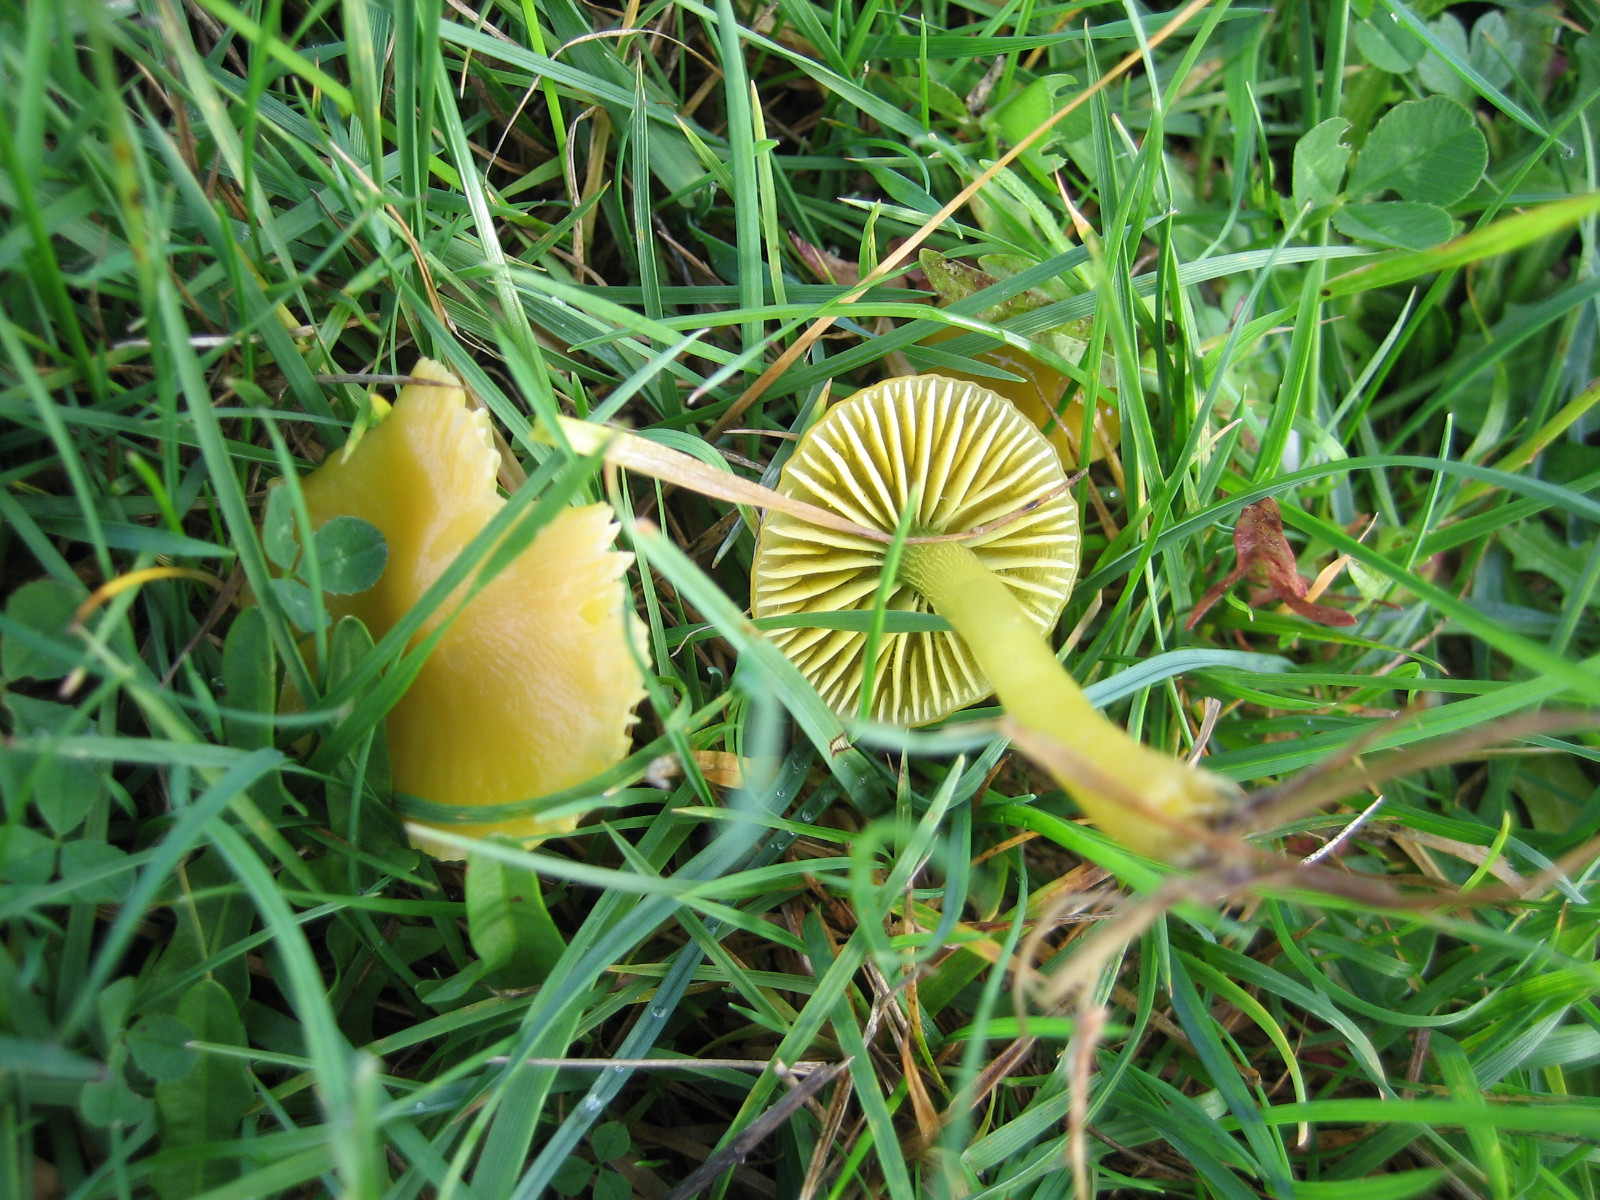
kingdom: Fungi
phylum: Basidiomycota
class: Agaricomycetes
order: Agaricales
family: Hygrophoraceae
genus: Gliophorus
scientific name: Gliophorus psittacinus
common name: papegøje-vokshat
